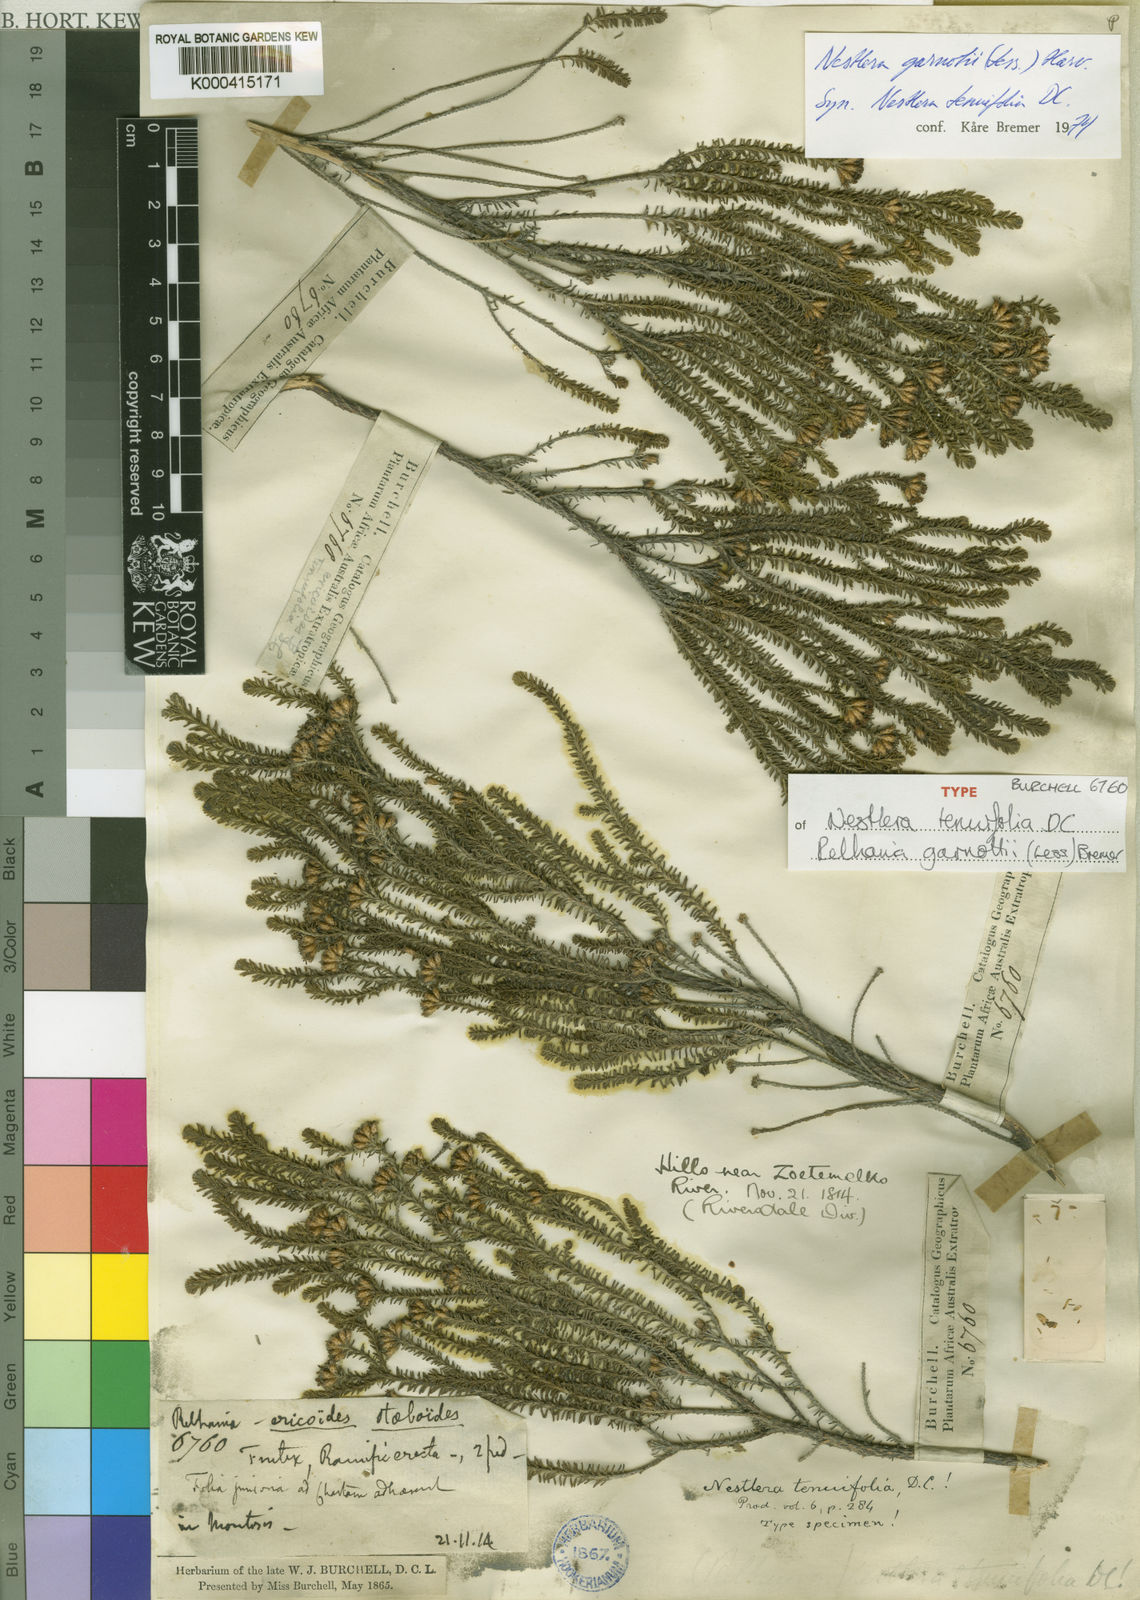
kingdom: Plantae
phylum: Tracheophyta
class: Magnoliopsida
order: Asterales
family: Asteraceae
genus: Oedera
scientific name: Oedera garnotii
